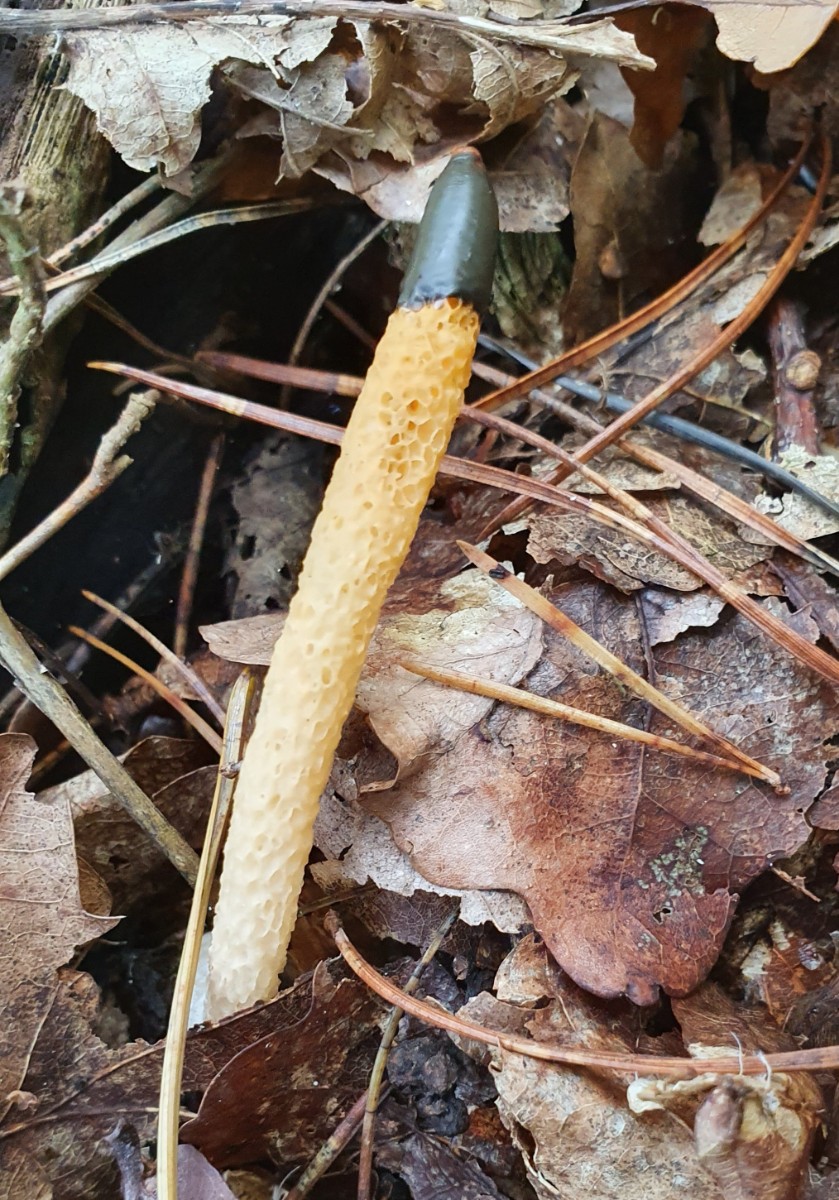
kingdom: Fungi
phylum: Basidiomycota
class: Agaricomycetes
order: Phallales
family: Phallaceae
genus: Mutinus
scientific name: Mutinus caninus
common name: hunde-stinksvamp
